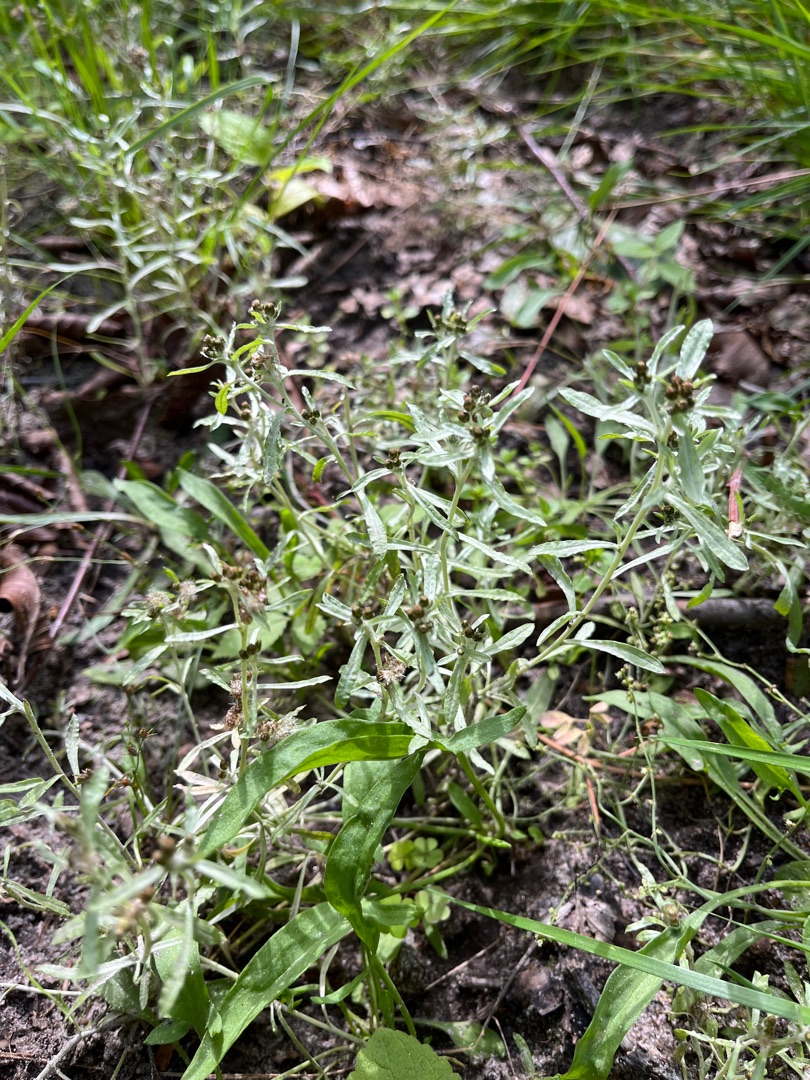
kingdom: Plantae
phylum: Tracheophyta
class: Magnoliopsida
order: Asterales
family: Asteraceae
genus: Gnaphalium
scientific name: Gnaphalium uliginosum
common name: Sump-evighedsblomst
